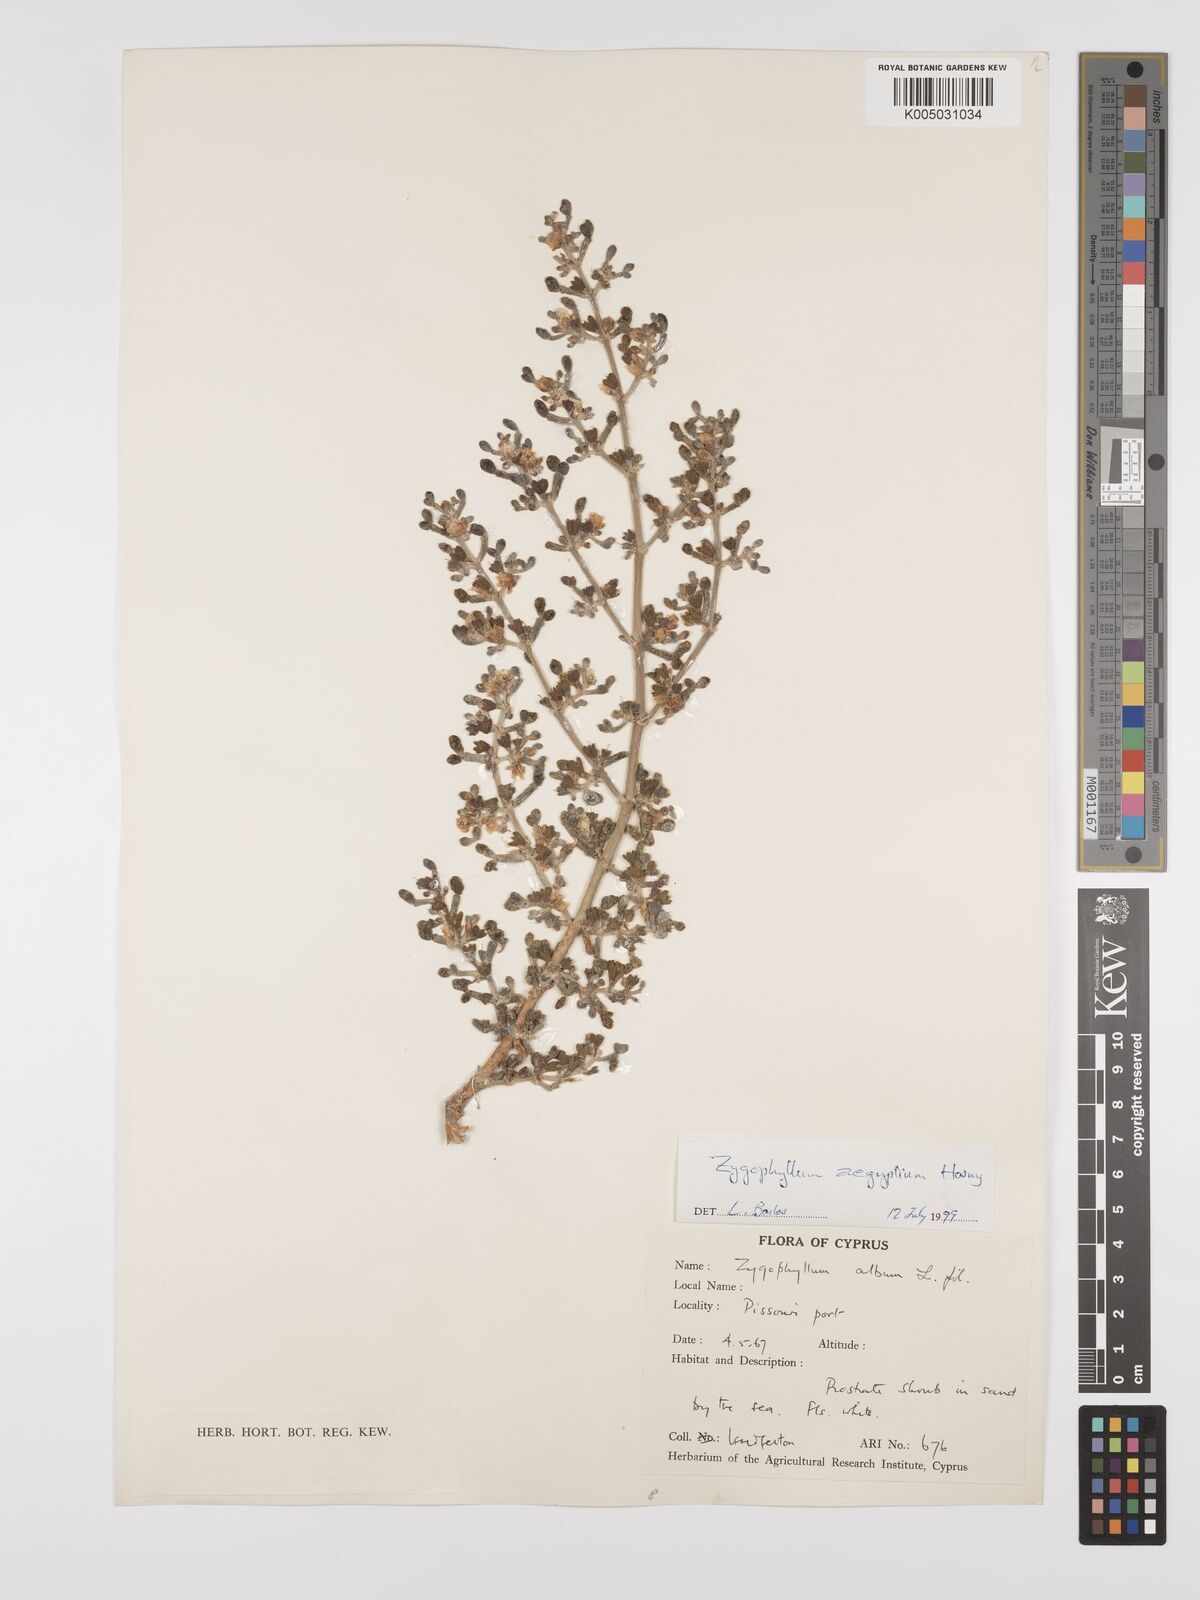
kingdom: Plantae
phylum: Tracheophyta
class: Magnoliopsida
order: Zygophyllales
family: Zygophyllaceae
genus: Zygophyllum
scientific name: Zygophyllum
